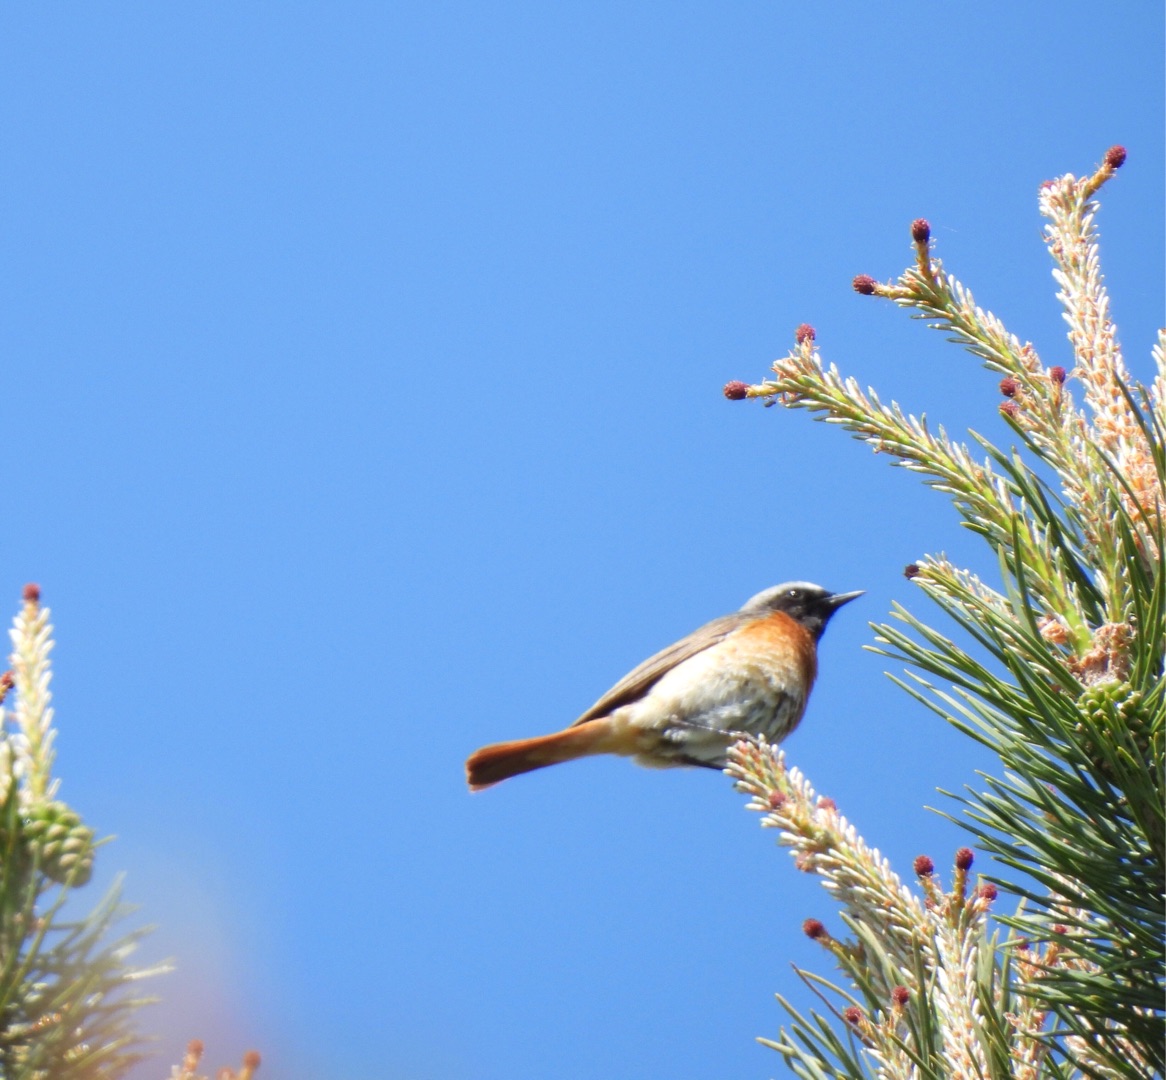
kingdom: Animalia
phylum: Chordata
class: Aves
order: Passeriformes
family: Muscicapidae
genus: Phoenicurus
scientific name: Phoenicurus phoenicurus
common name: Rødstjert
